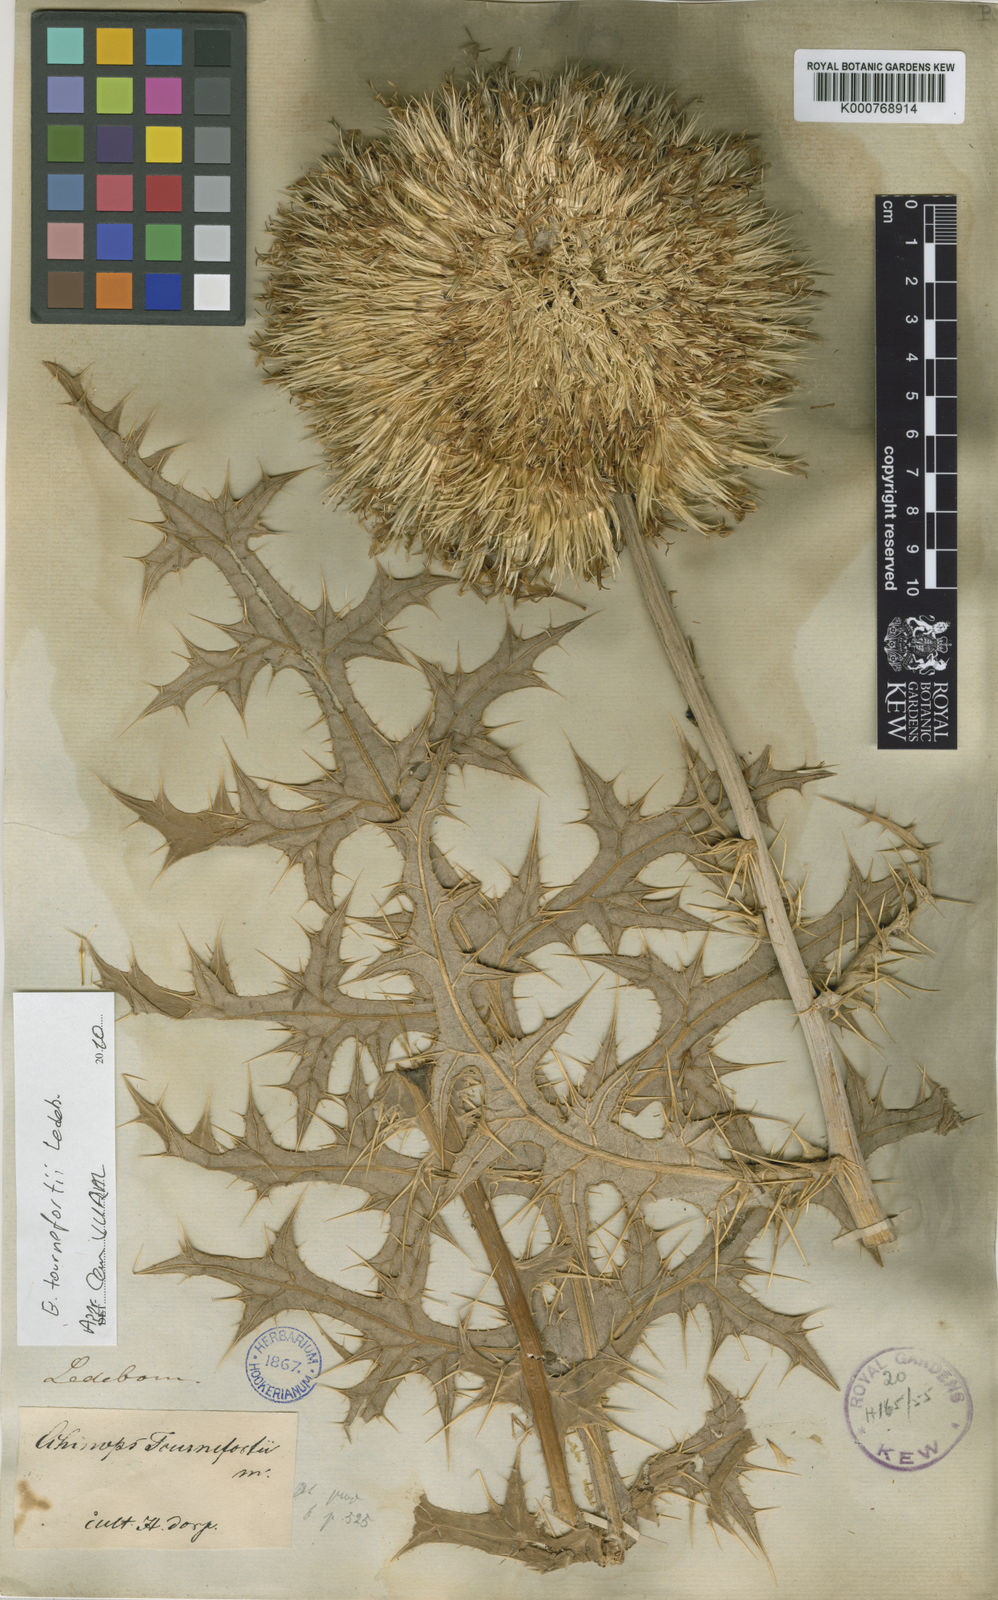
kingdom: Plantae
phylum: Tracheophyta
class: Magnoliopsida
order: Asterales
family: Asteraceae
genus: Echinops
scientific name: Echinops tournefortii
